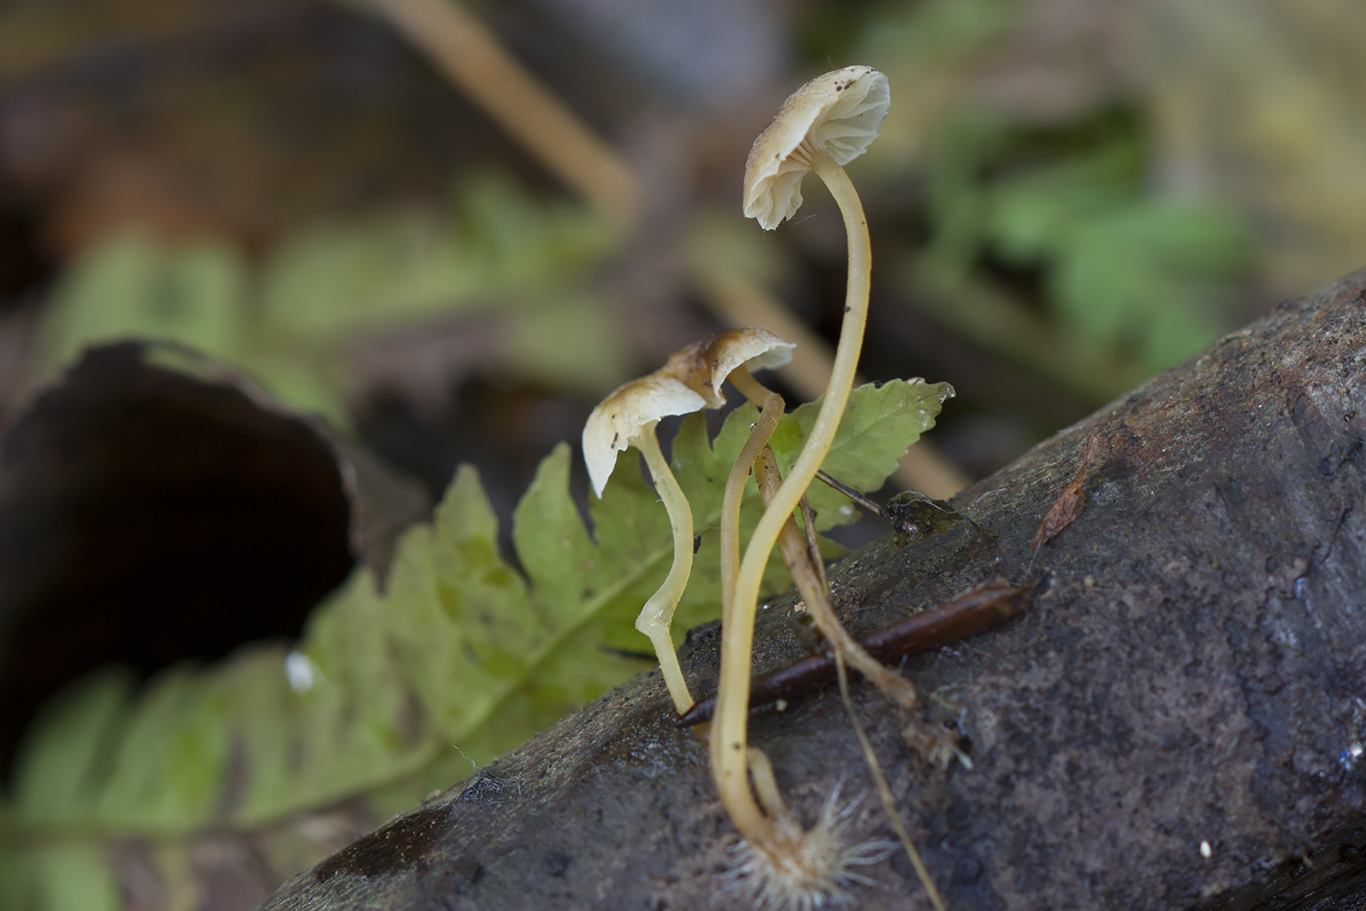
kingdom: Fungi
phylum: Basidiomycota
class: Agaricomycetes
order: Agaricales
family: Porotheleaceae
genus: Phloeomana
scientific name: Phloeomana speirea
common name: kvist-huesvamp
